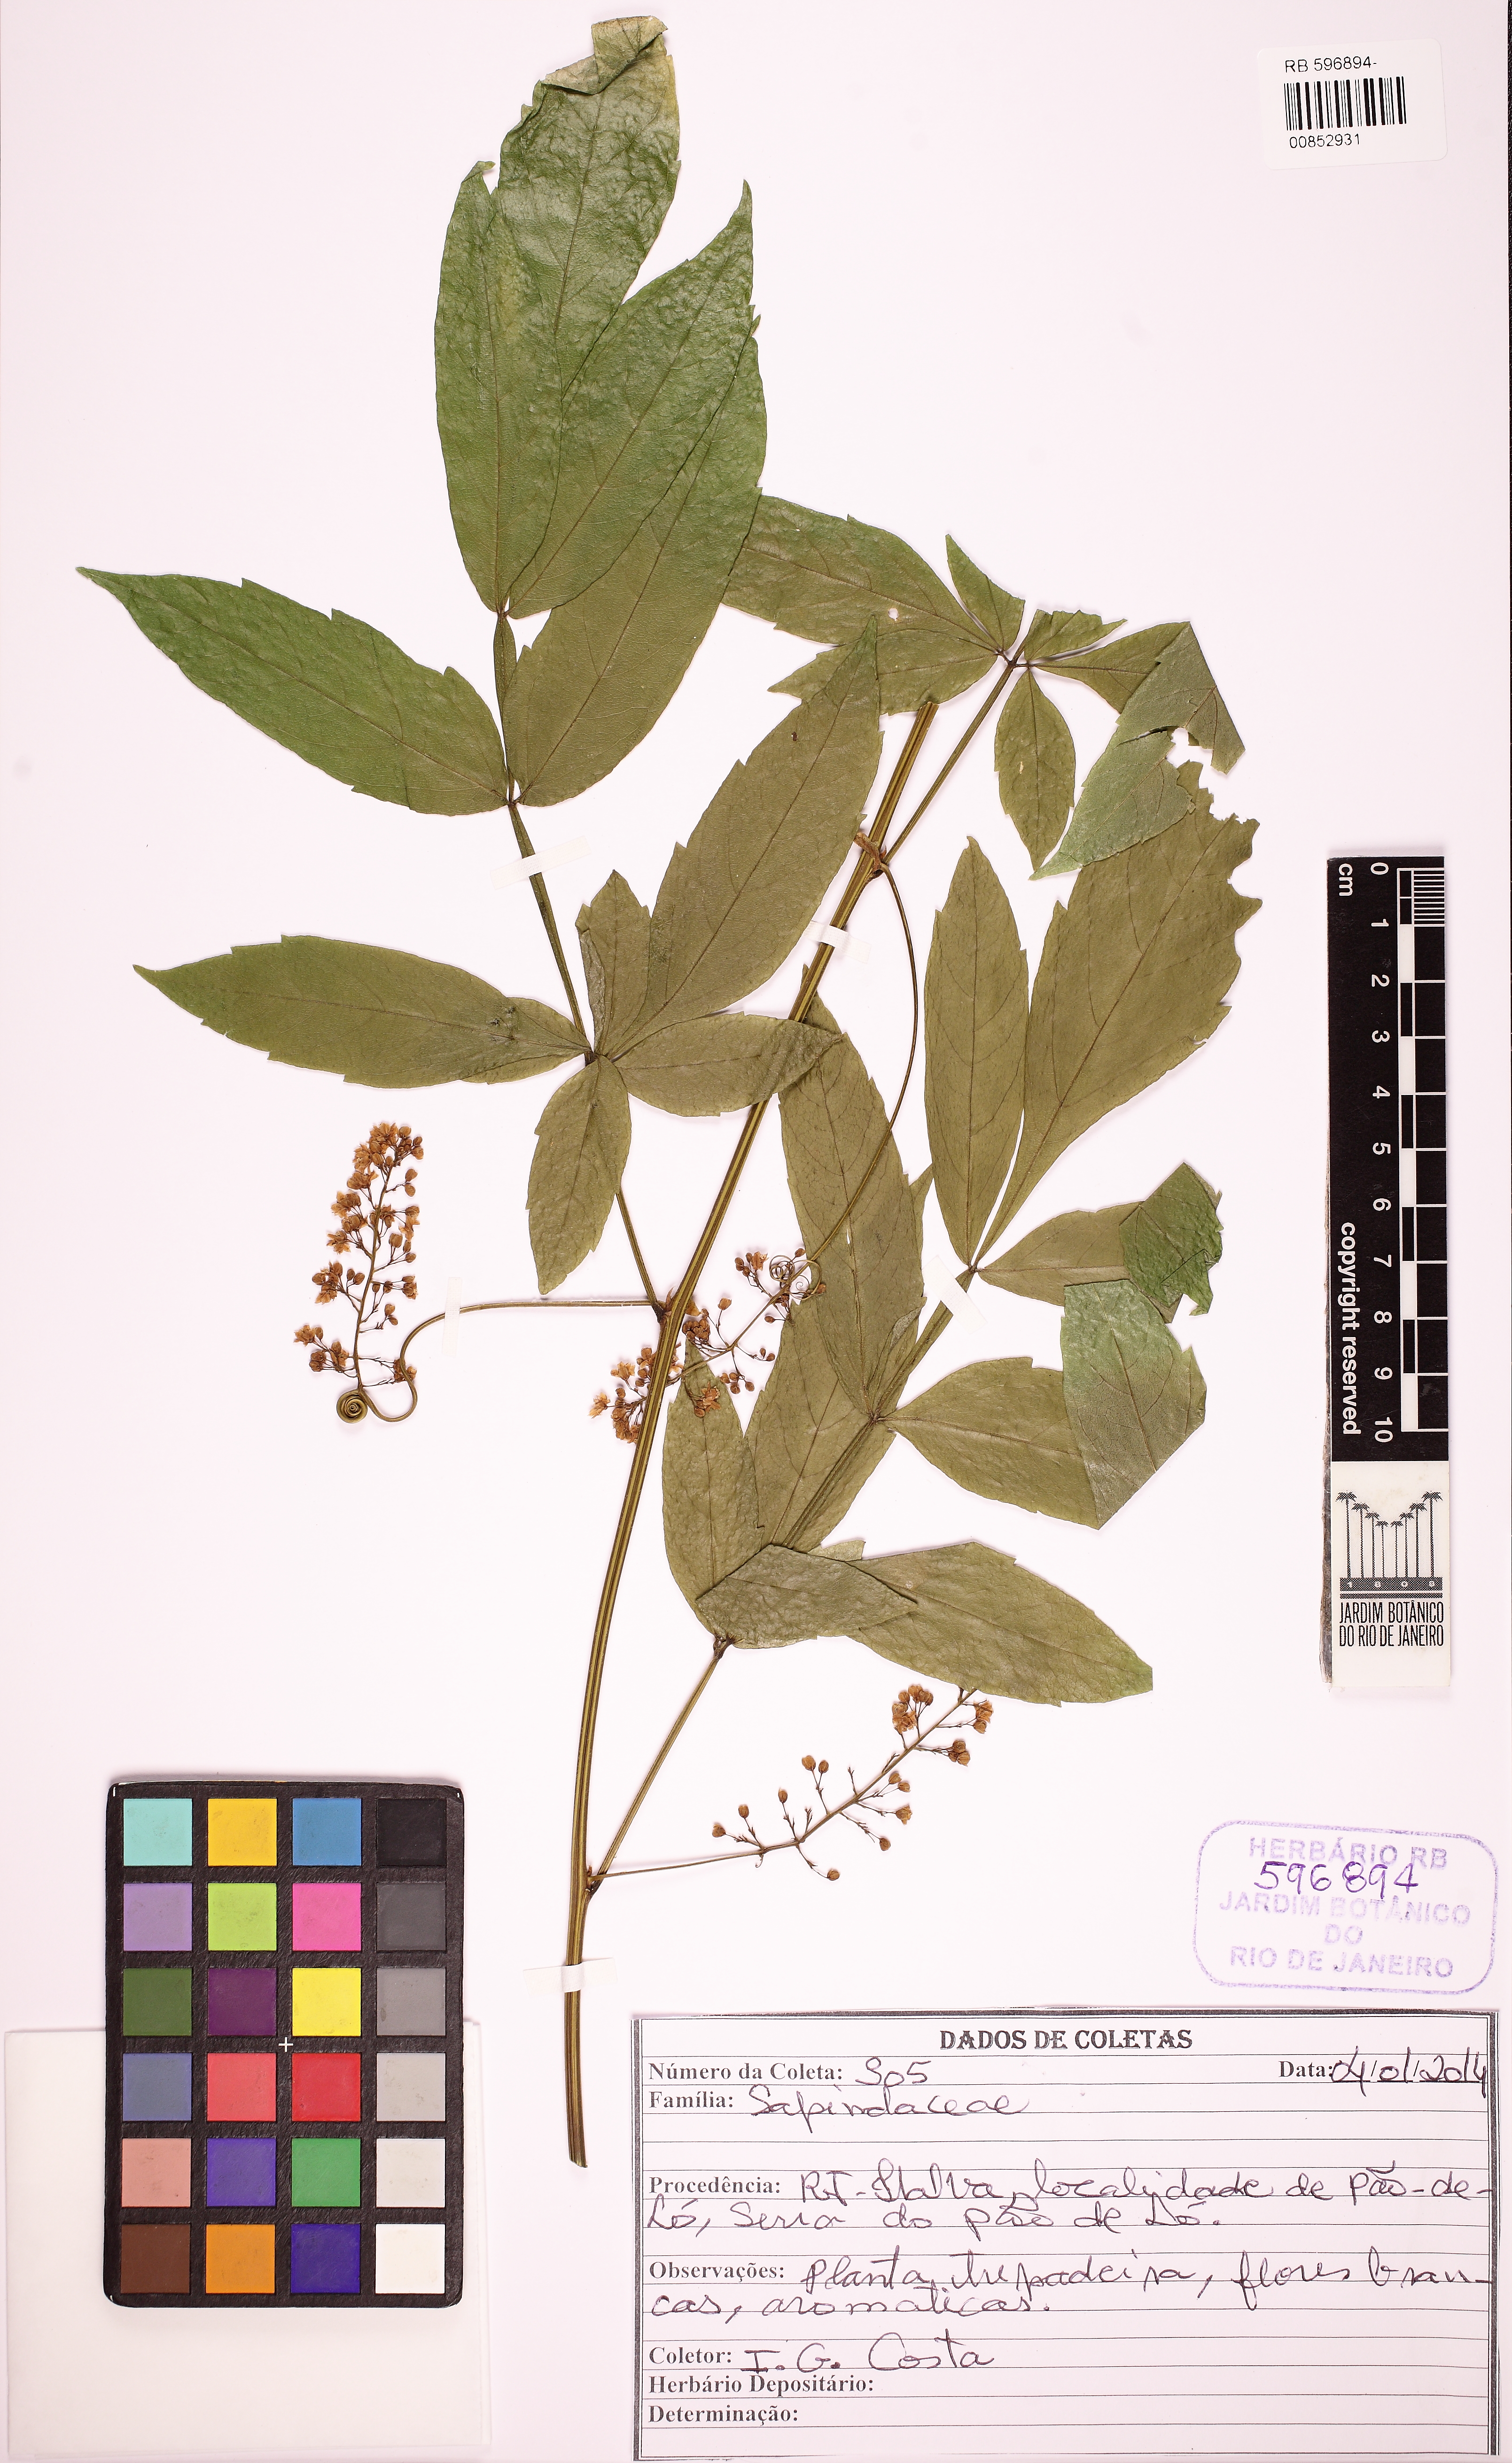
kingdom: Plantae
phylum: Tracheophyta
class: Magnoliopsida
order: Sapindales
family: Sapindaceae
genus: Paullinia
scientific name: Paullinia meliifolia
